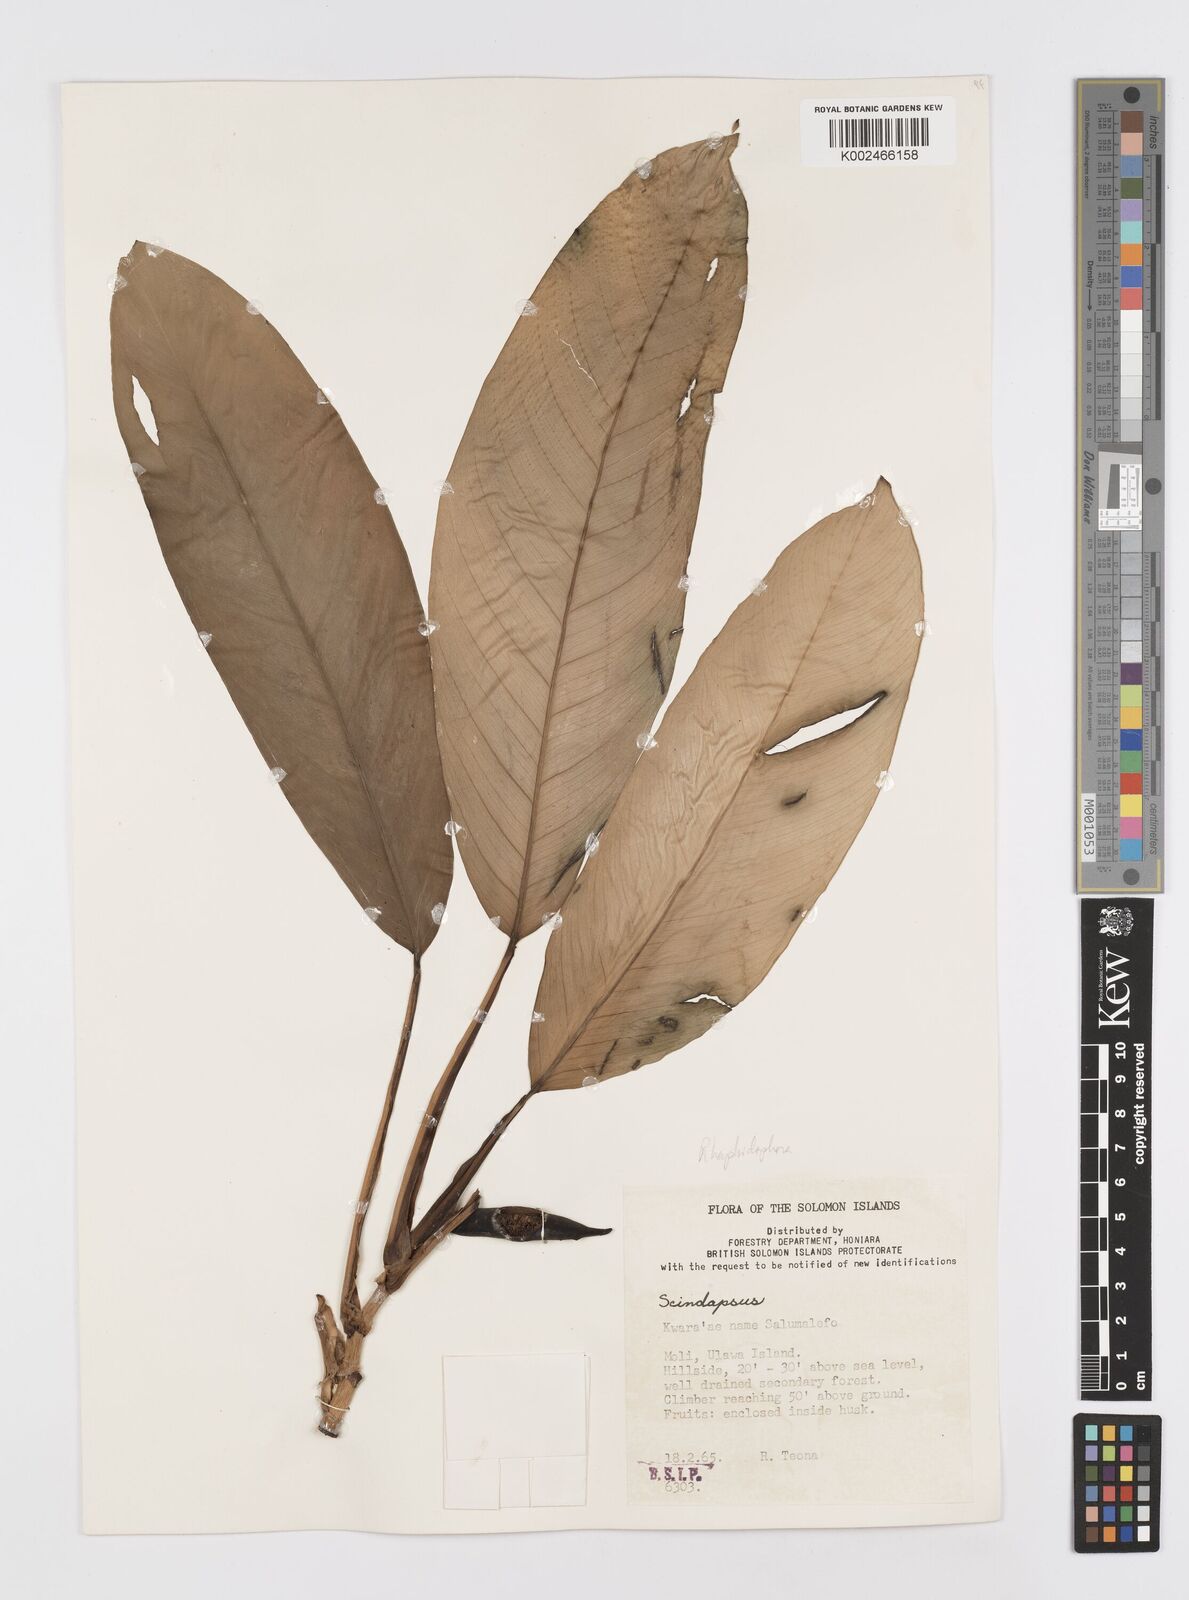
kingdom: Plantae
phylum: Tracheophyta
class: Liliopsida
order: Alismatales
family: Araceae
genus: Rhaphidophora
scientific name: Rhaphidophora schlechteri
